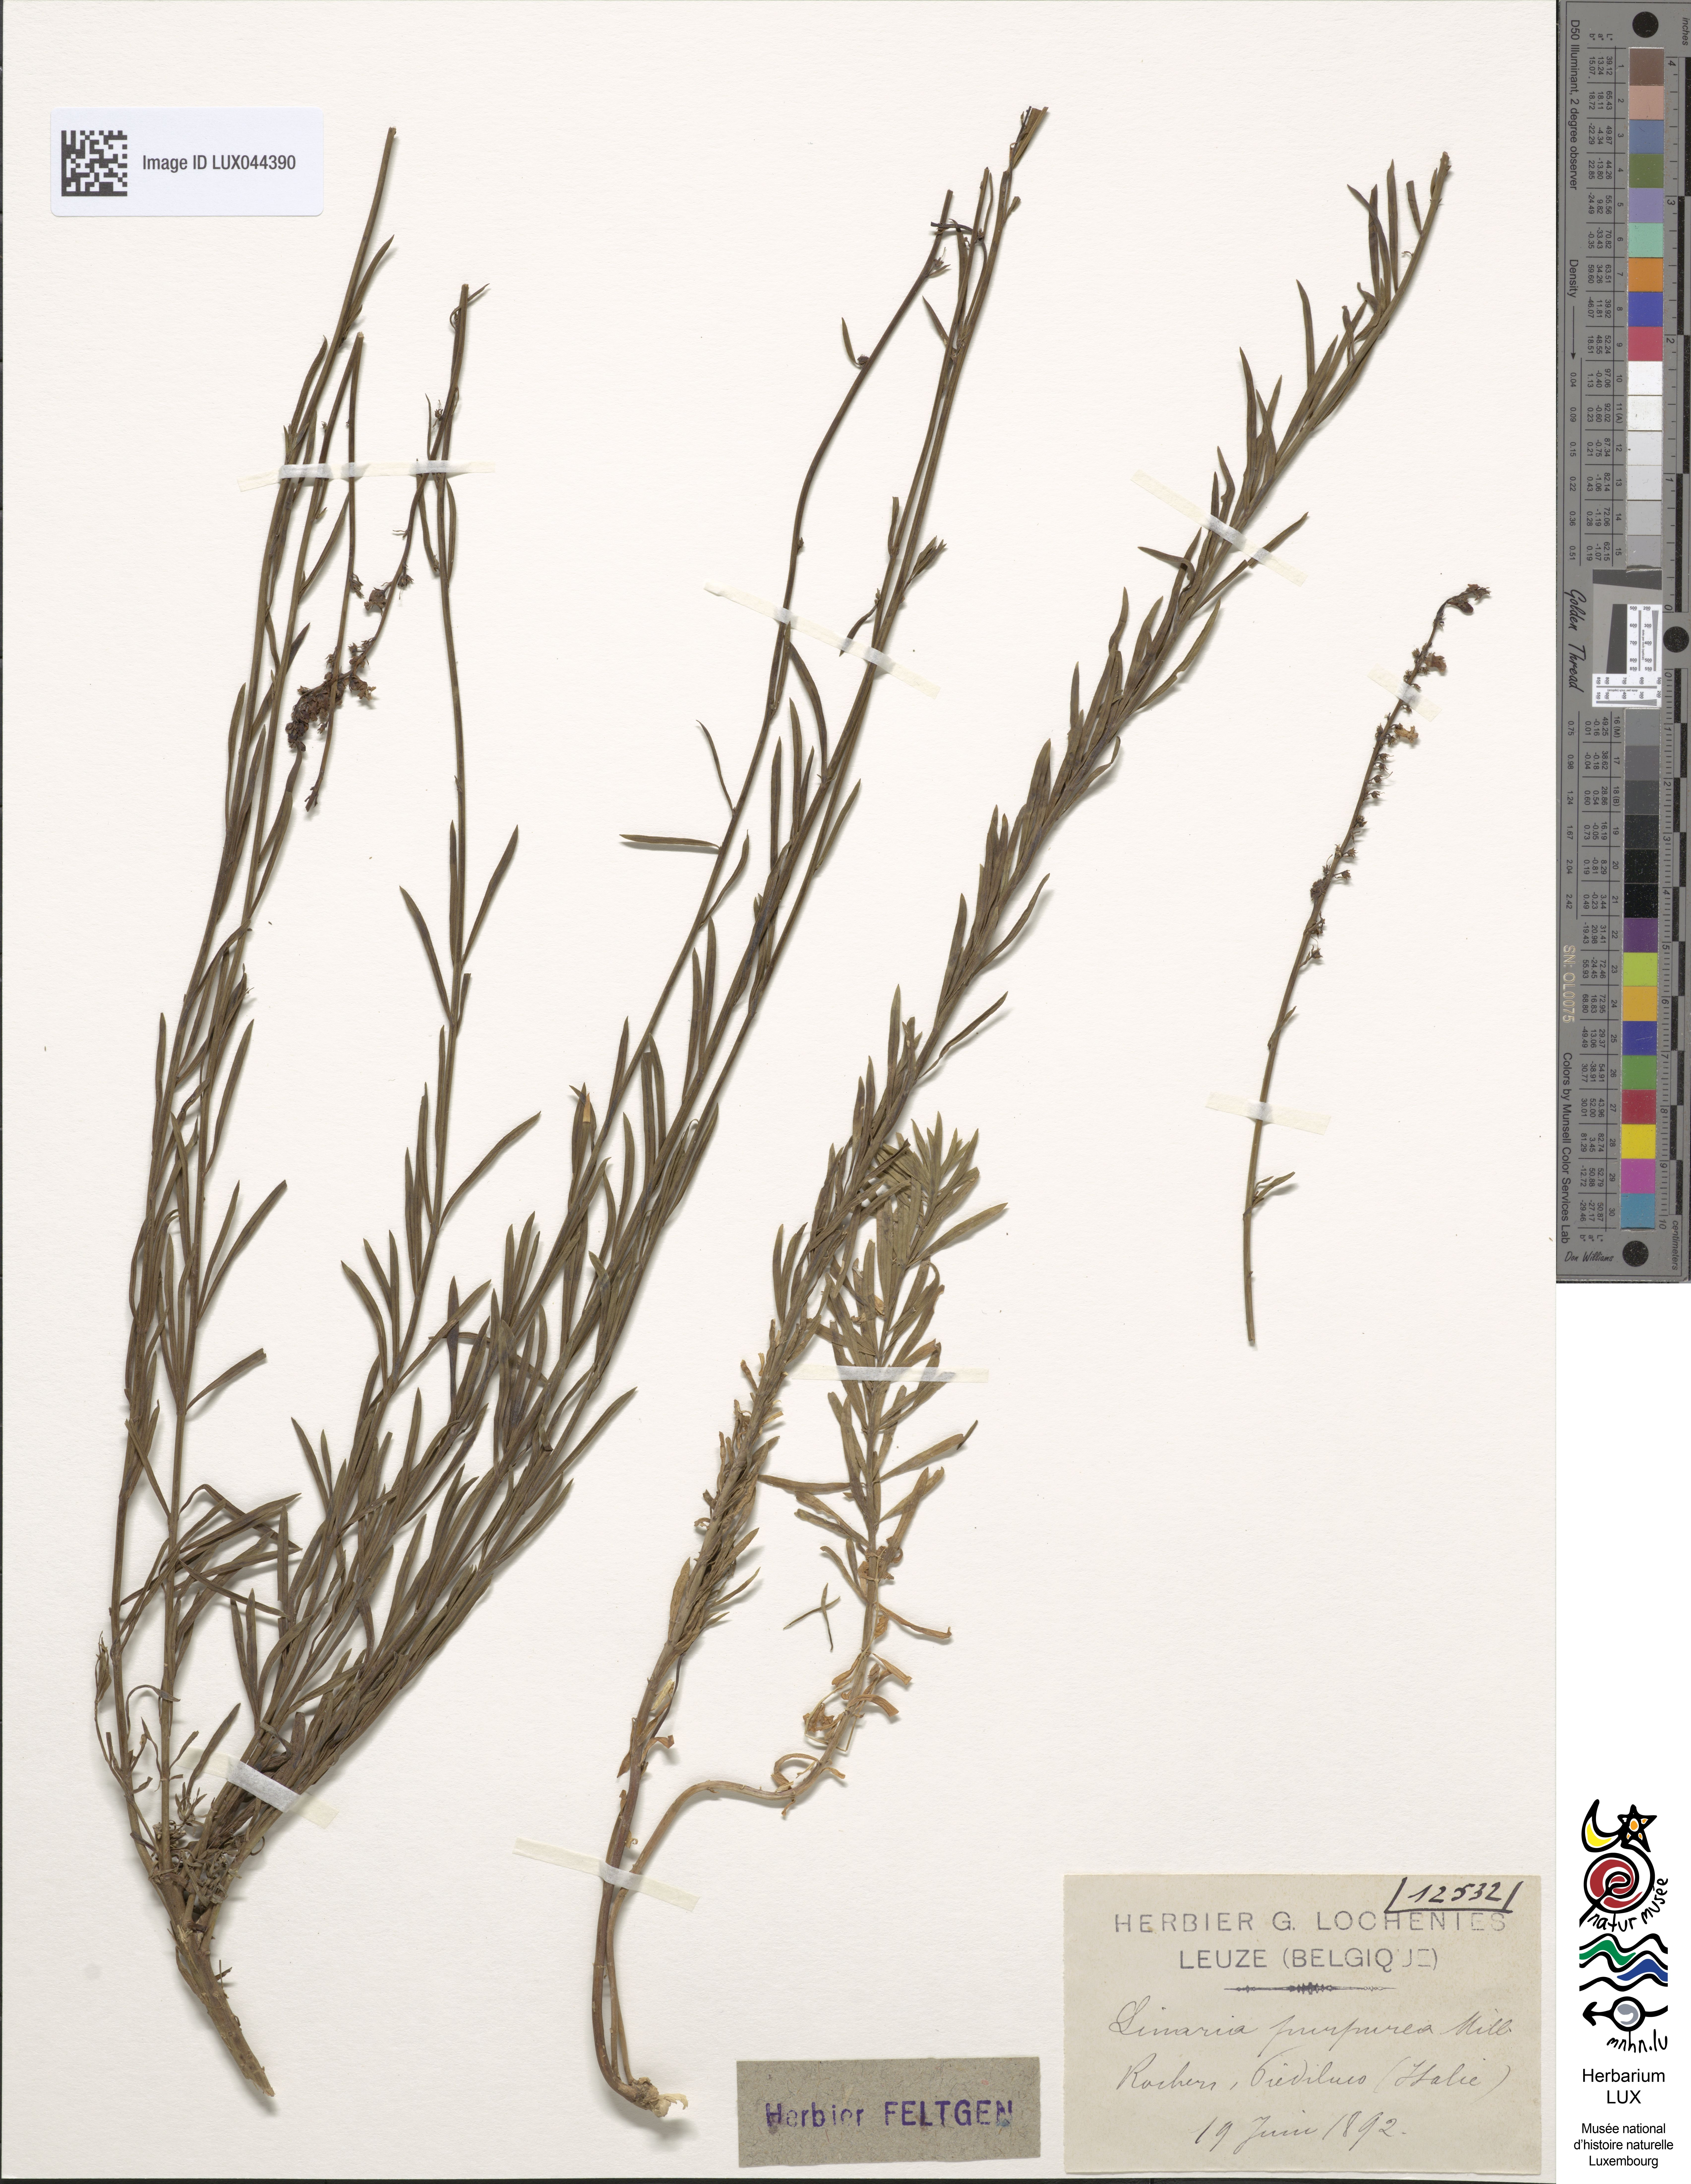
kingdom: Plantae
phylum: Tracheophyta
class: Magnoliopsida
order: Lamiales
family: Plantaginaceae
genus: Linaria
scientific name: Linaria purpurea
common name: Purple toadflax
